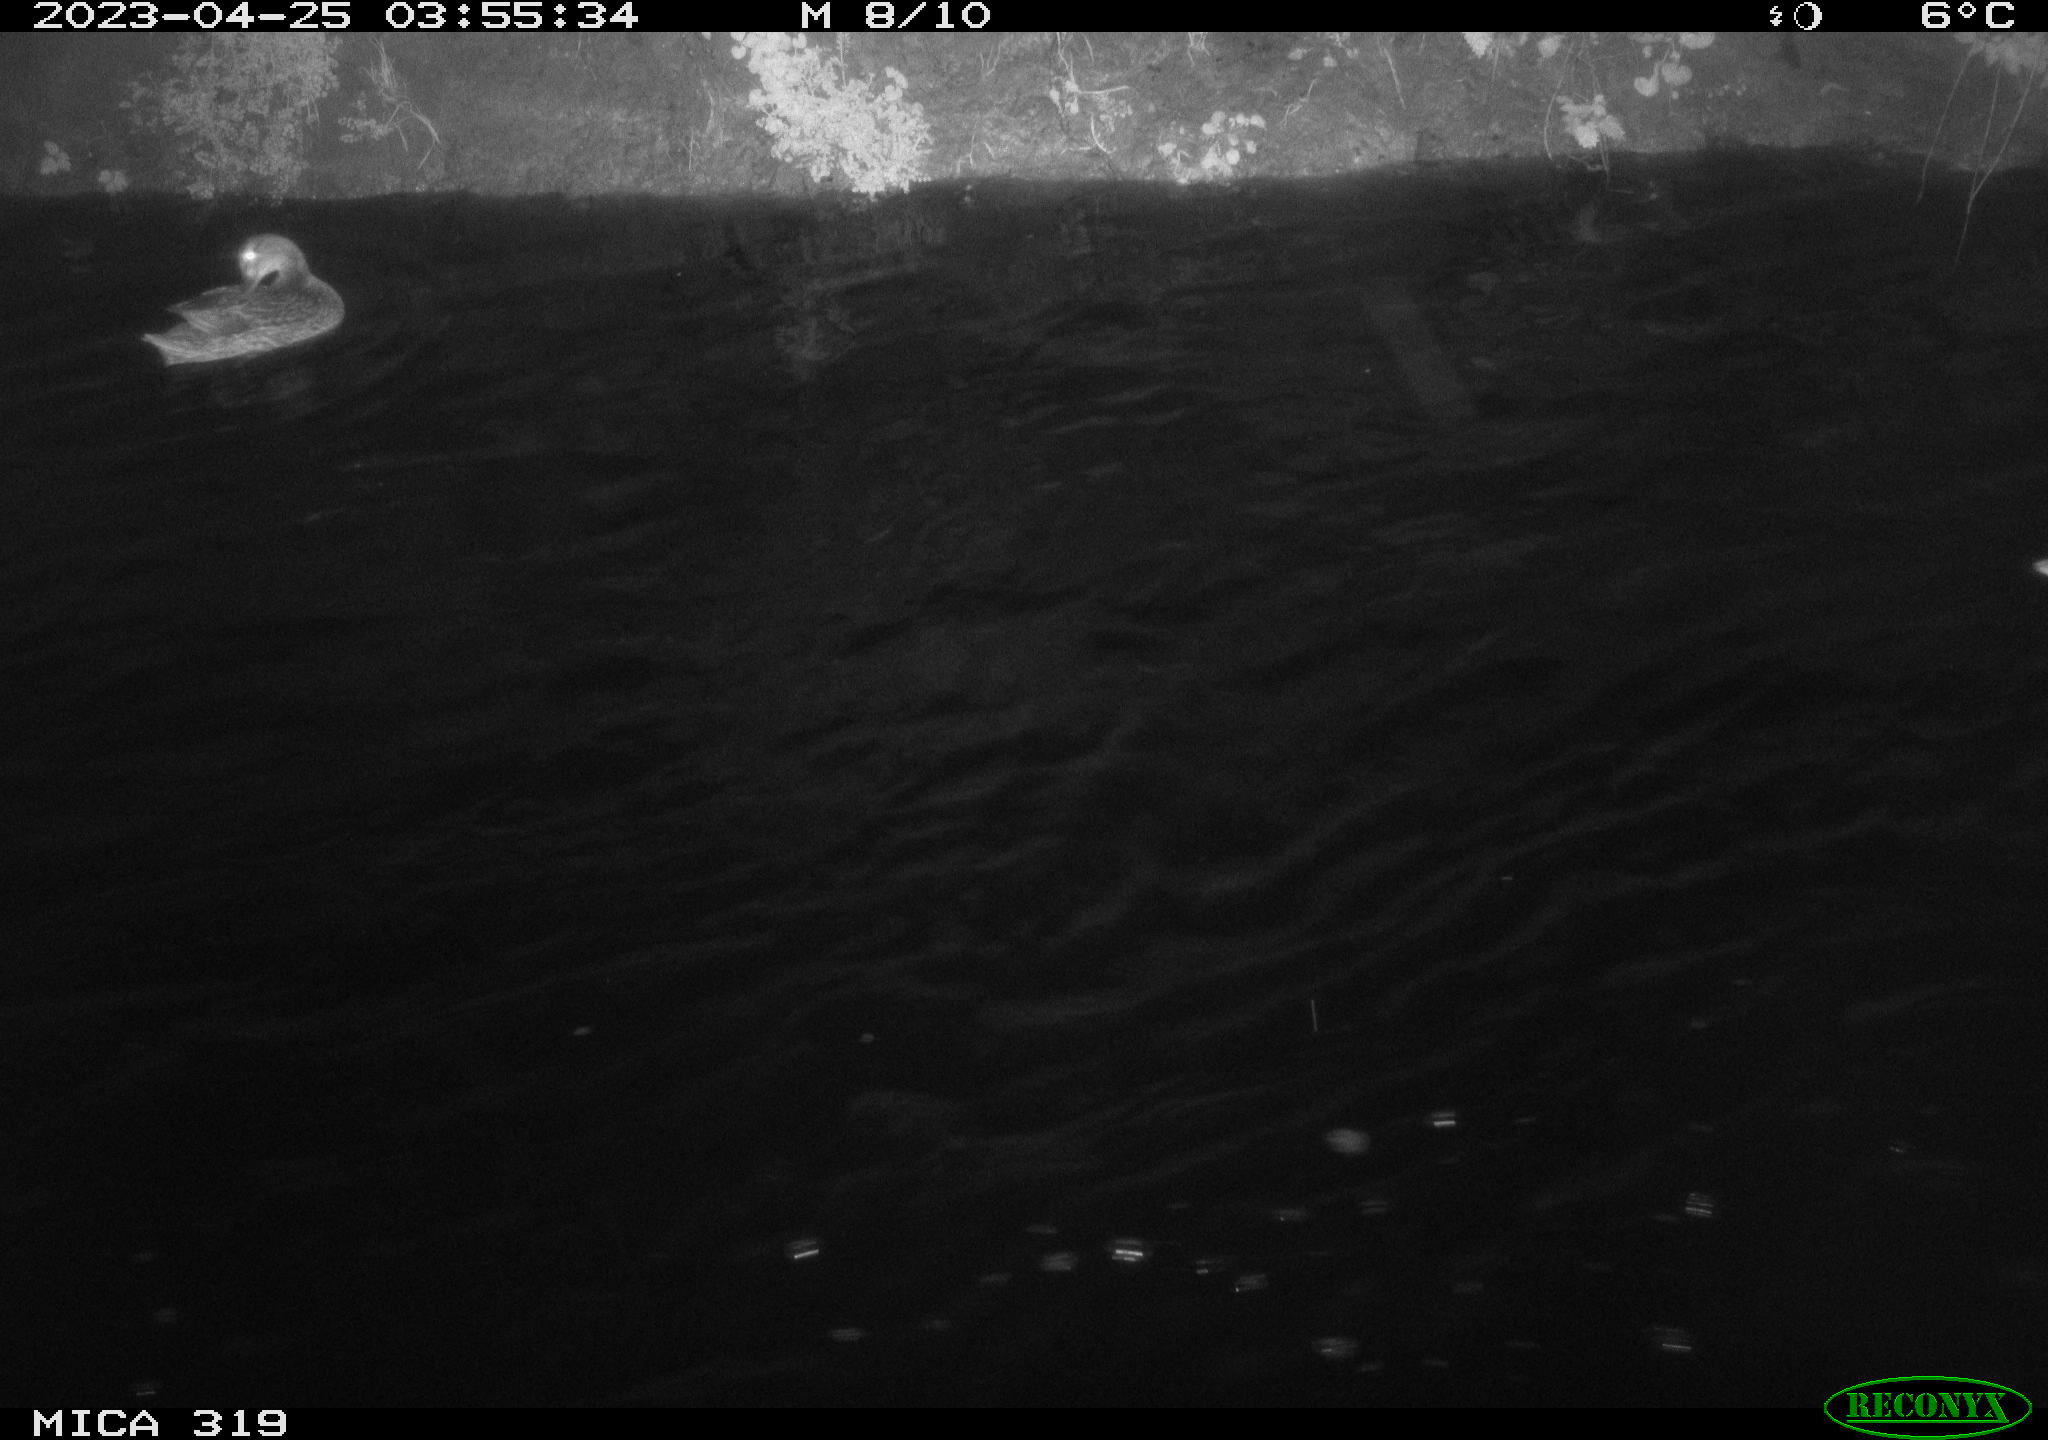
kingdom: Animalia
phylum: Chordata
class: Aves
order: Anseriformes
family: Anatidae
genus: Anas
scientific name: Anas
